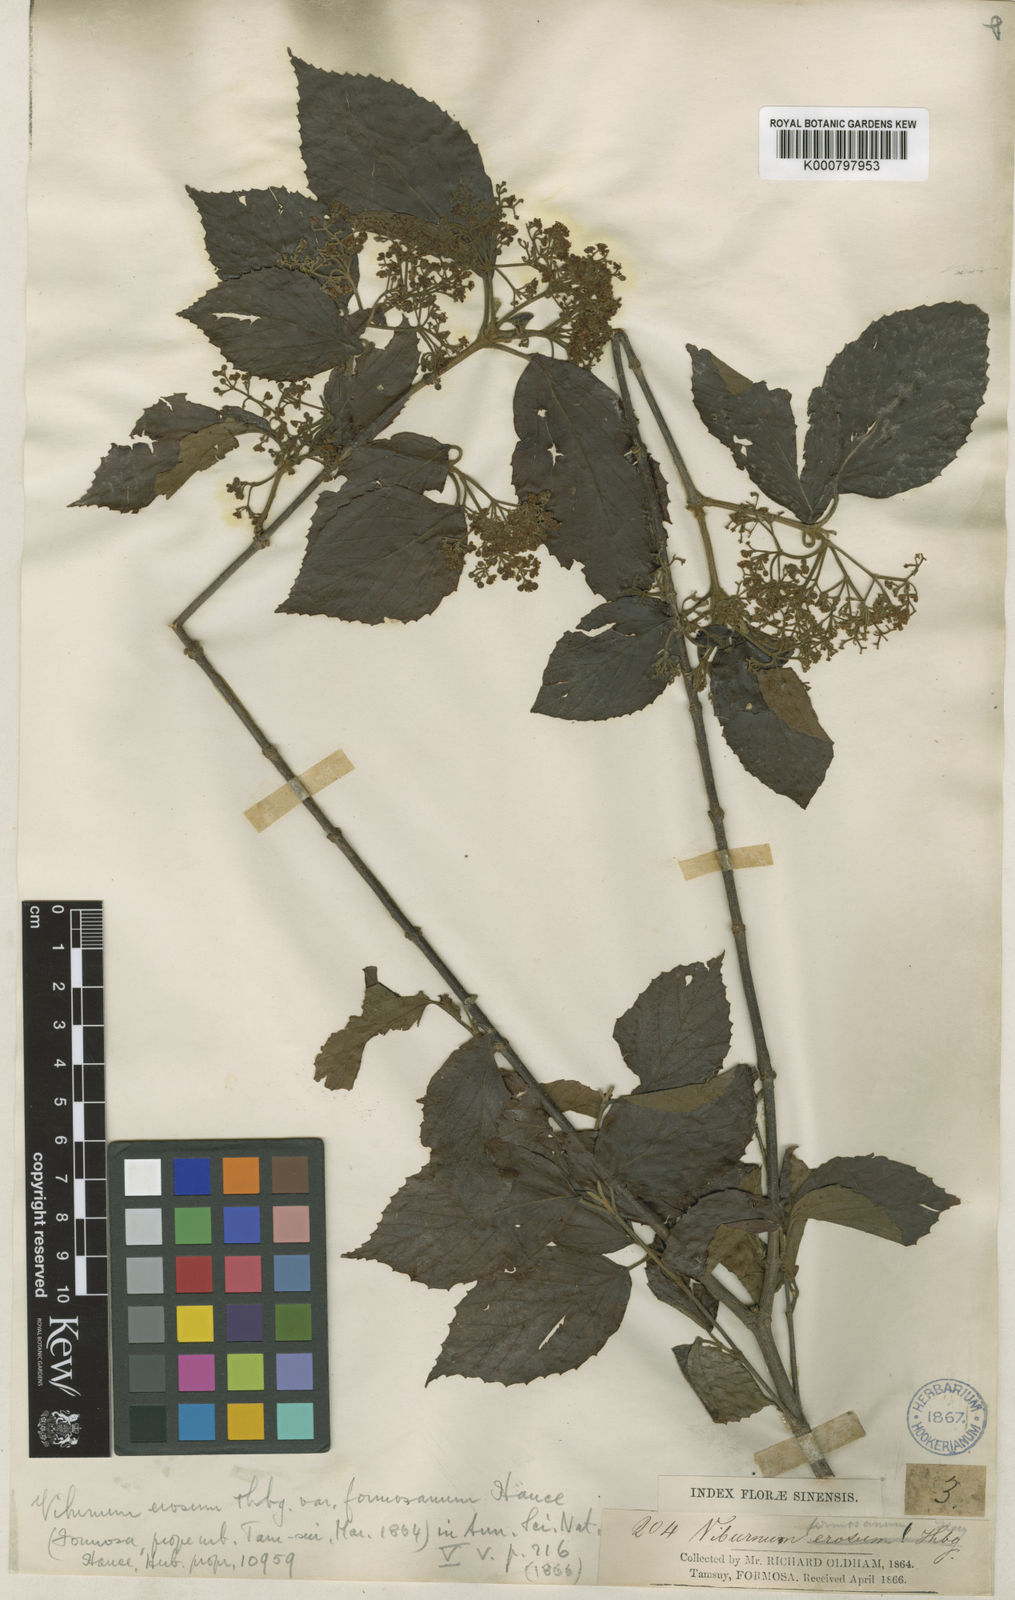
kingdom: Plantae
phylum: Tracheophyta
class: Magnoliopsida
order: Dipsacales
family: Viburnaceae
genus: Viburnum
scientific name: Viburnum luzonicum
